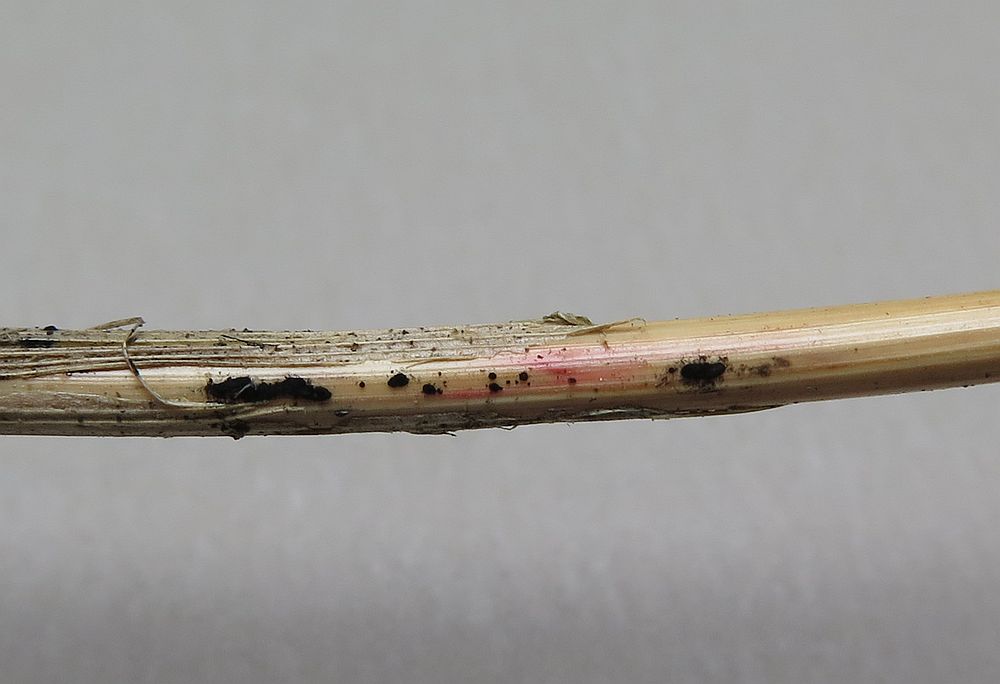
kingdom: Fungi
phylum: Ascomycota
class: Sordariomycetes
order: Xylariales
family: Apiosporaceae
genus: Apiospora
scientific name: Apiospora arundinis
